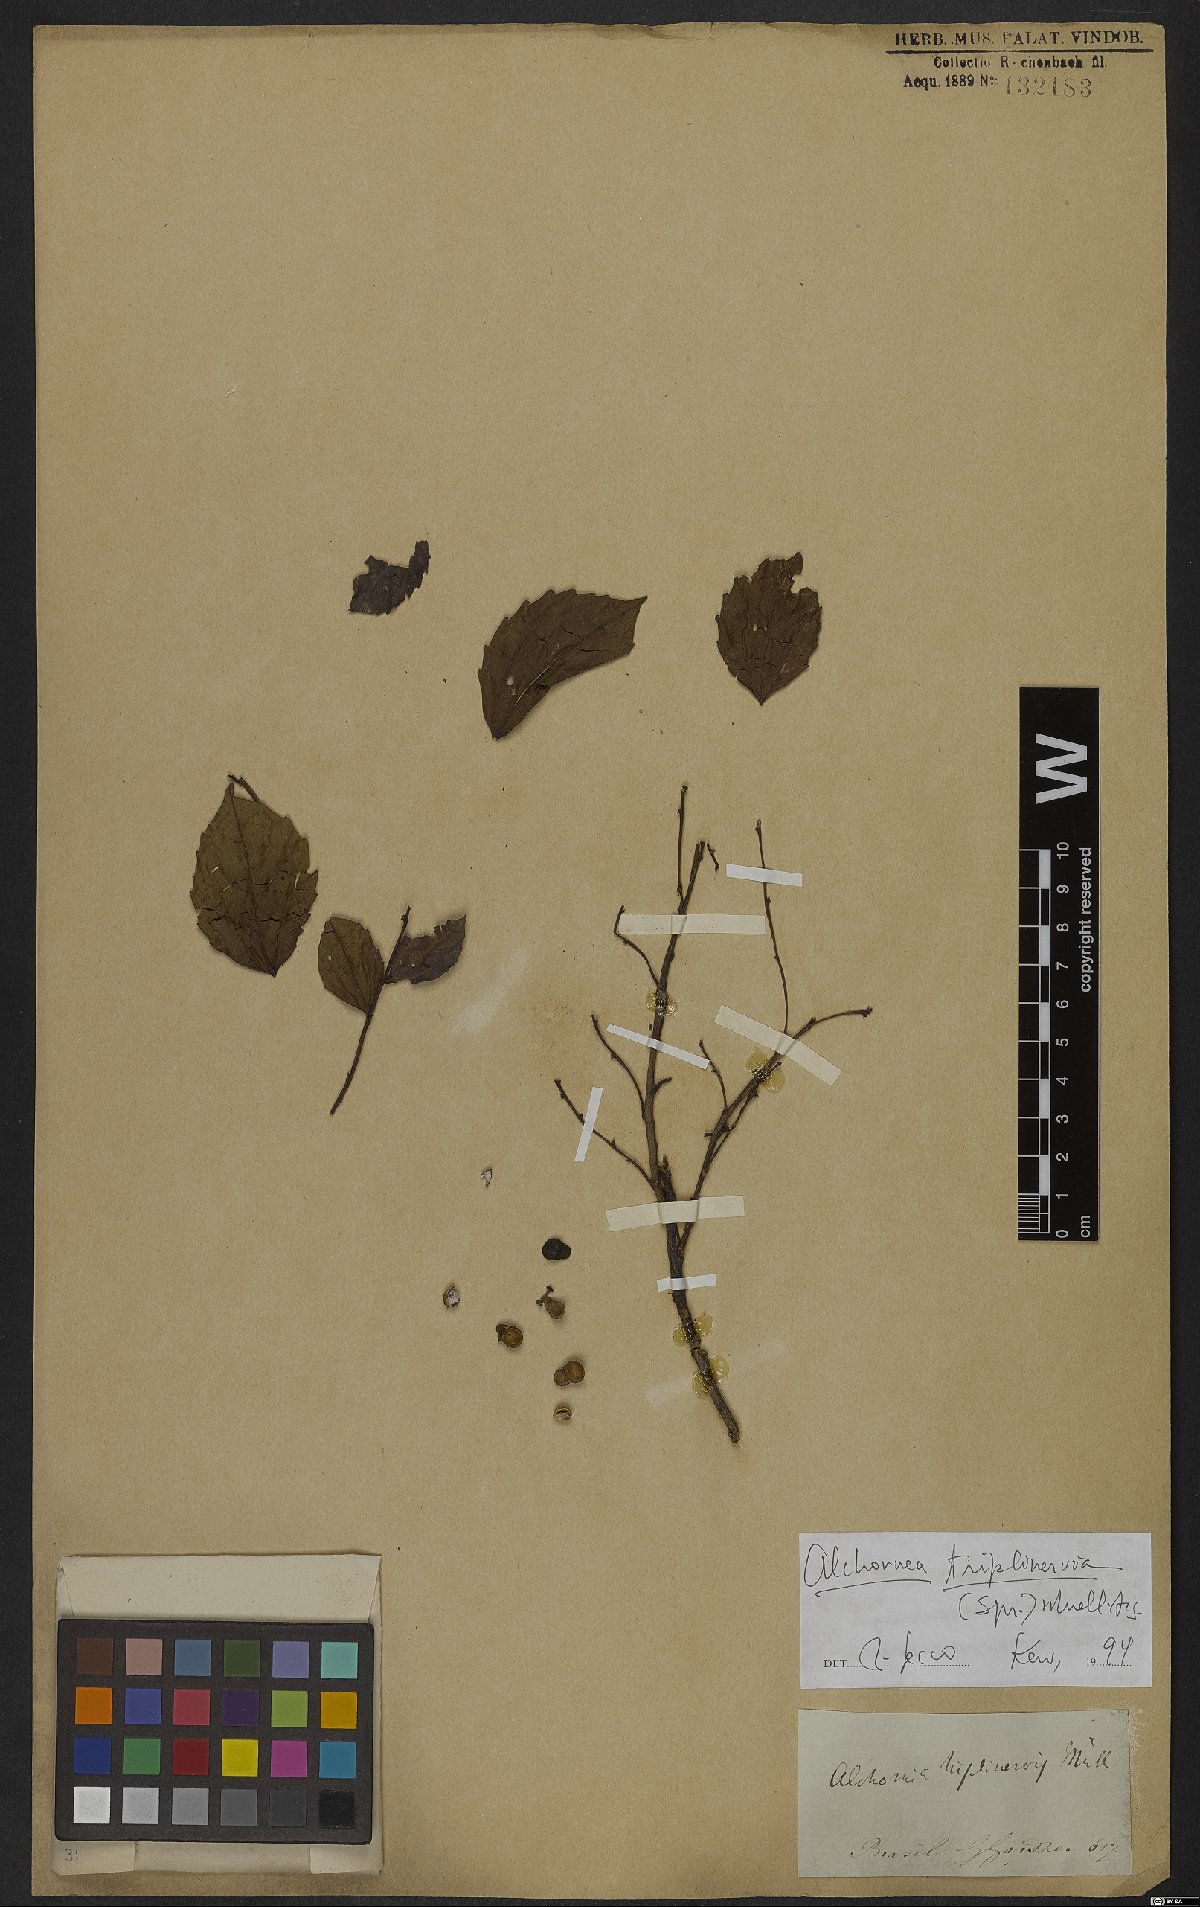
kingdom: Plantae
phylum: Tracheophyta
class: Magnoliopsida
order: Malpighiales
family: Euphorbiaceae
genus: Alchornea
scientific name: Alchornea triplinervia
